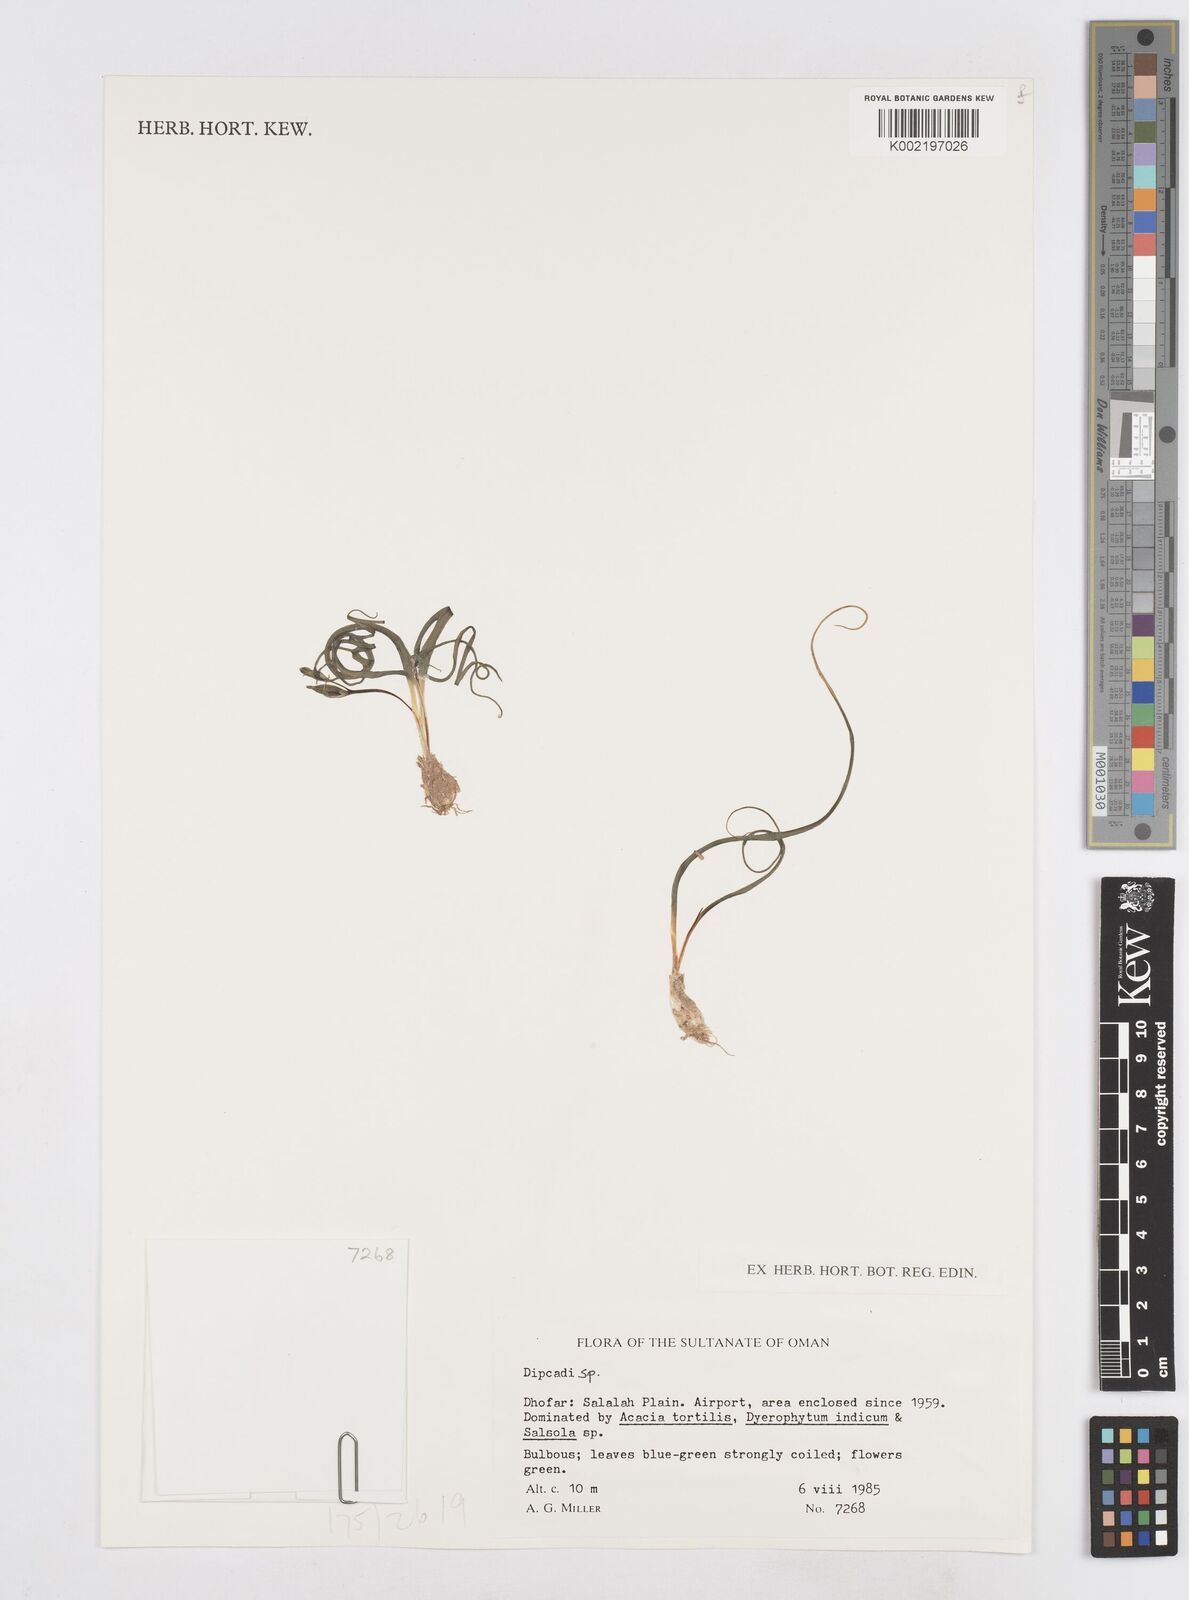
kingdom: Plantae
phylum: Tracheophyta
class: Liliopsida
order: Asparagales
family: Asparagaceae
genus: Dipcadi
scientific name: Dipcadi
